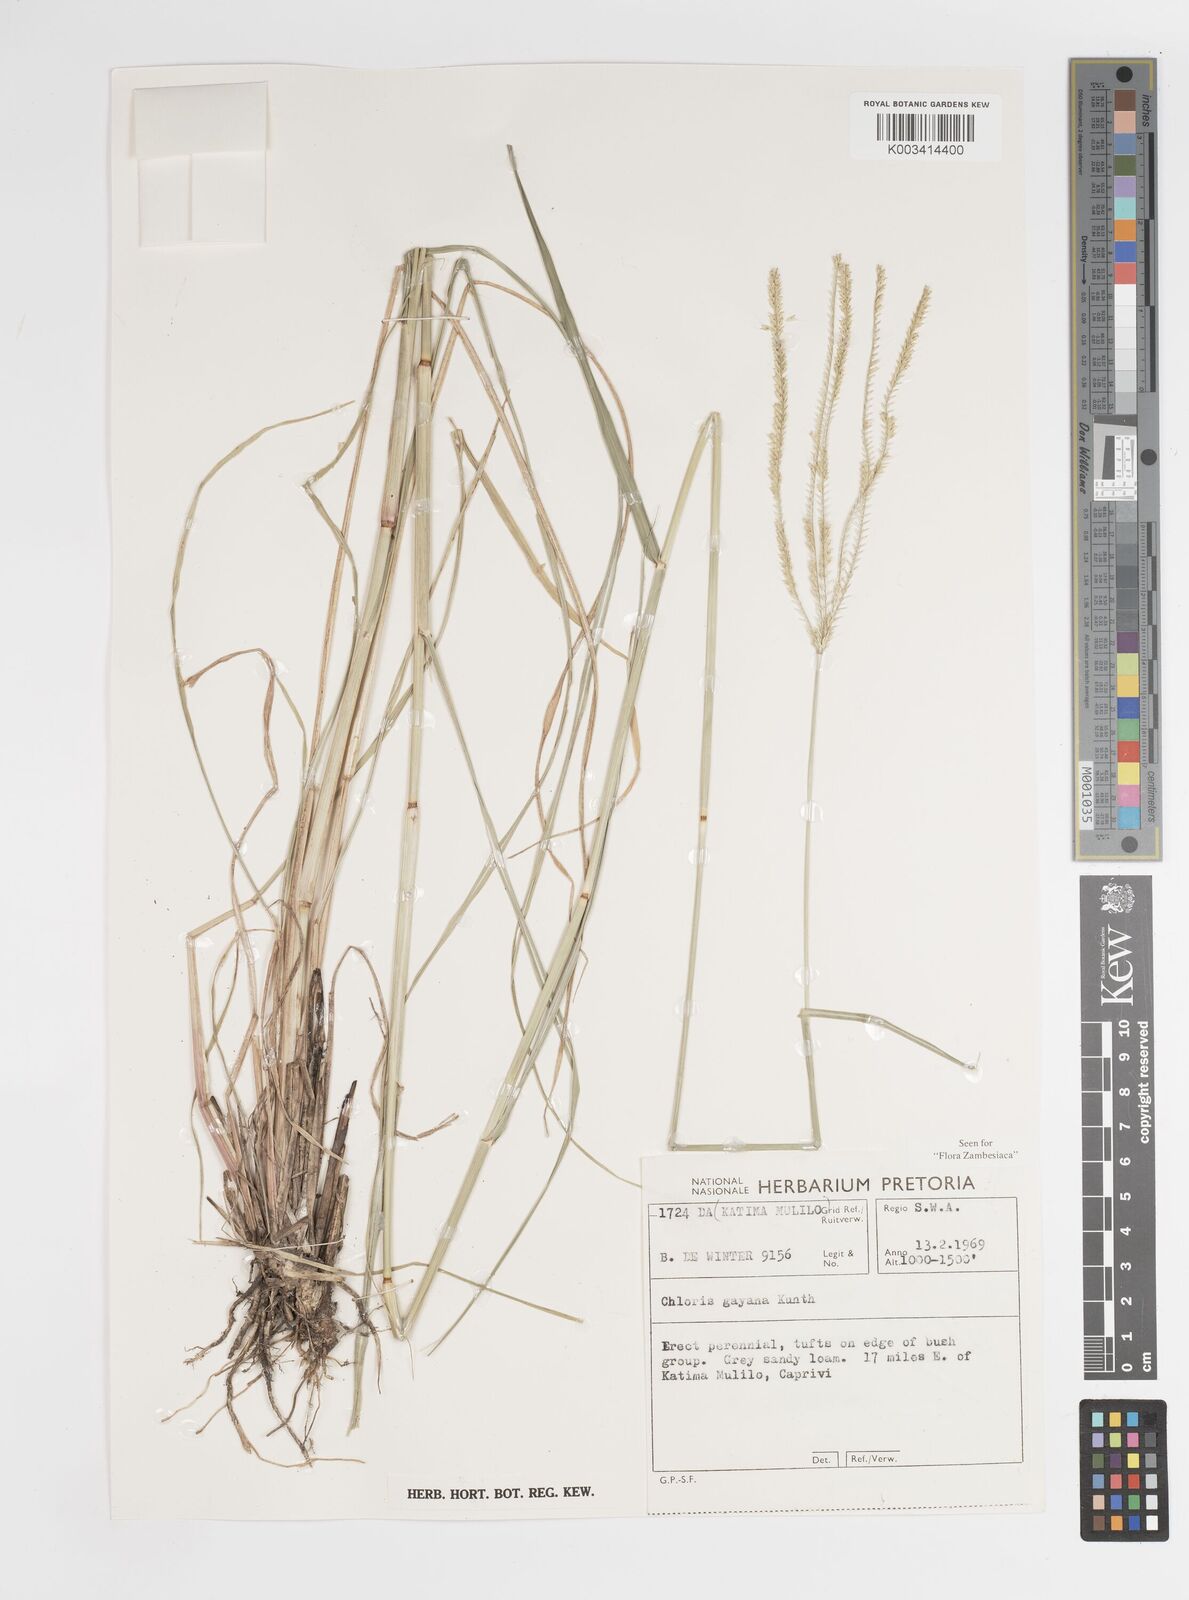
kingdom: Plantae
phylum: Tracheophyta
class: Liliopsida
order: Poales
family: Poaceae
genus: Chloris
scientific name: Chloris gayana
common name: Rhodes grass
